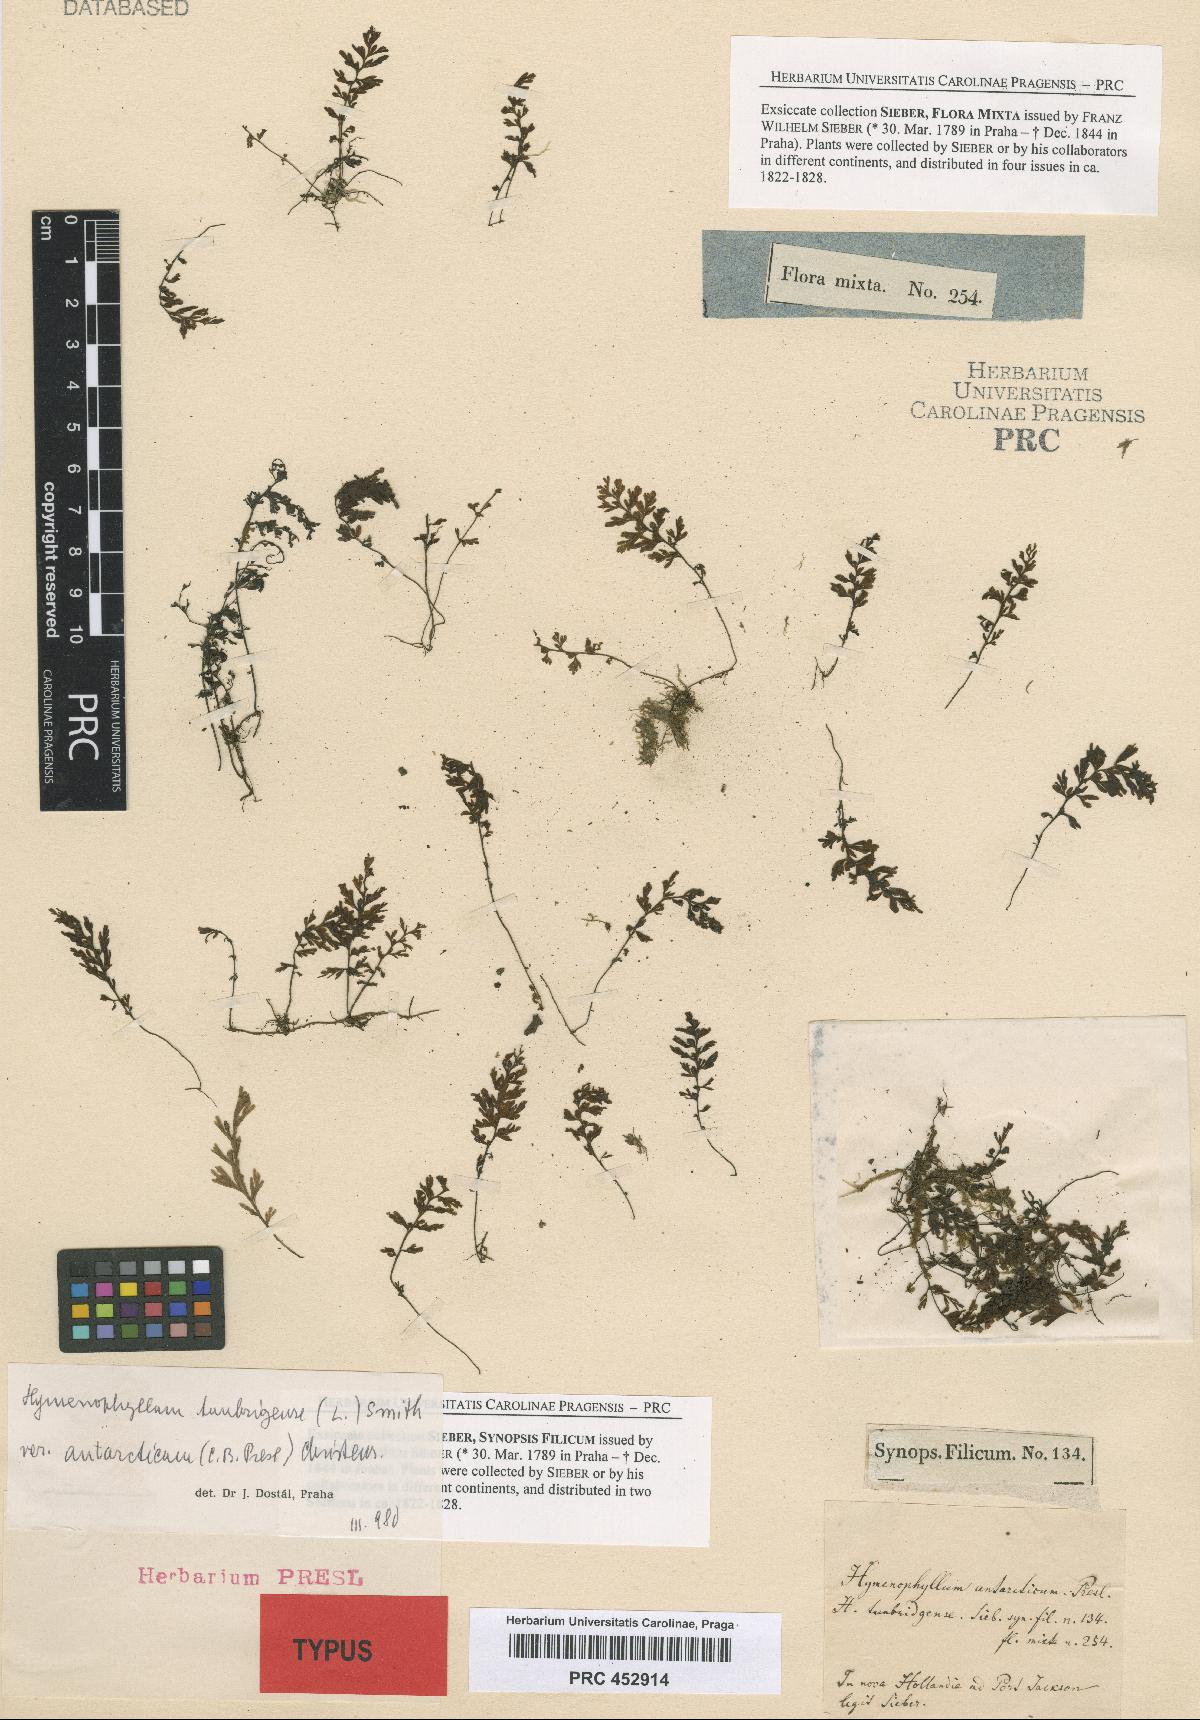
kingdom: Plantae
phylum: Tracheophyta
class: Polypodiopsida
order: Hymenophyllales
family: Hymenophyllaceae
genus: Hymenophyllum
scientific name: Hymenophyllum cupressiforme
